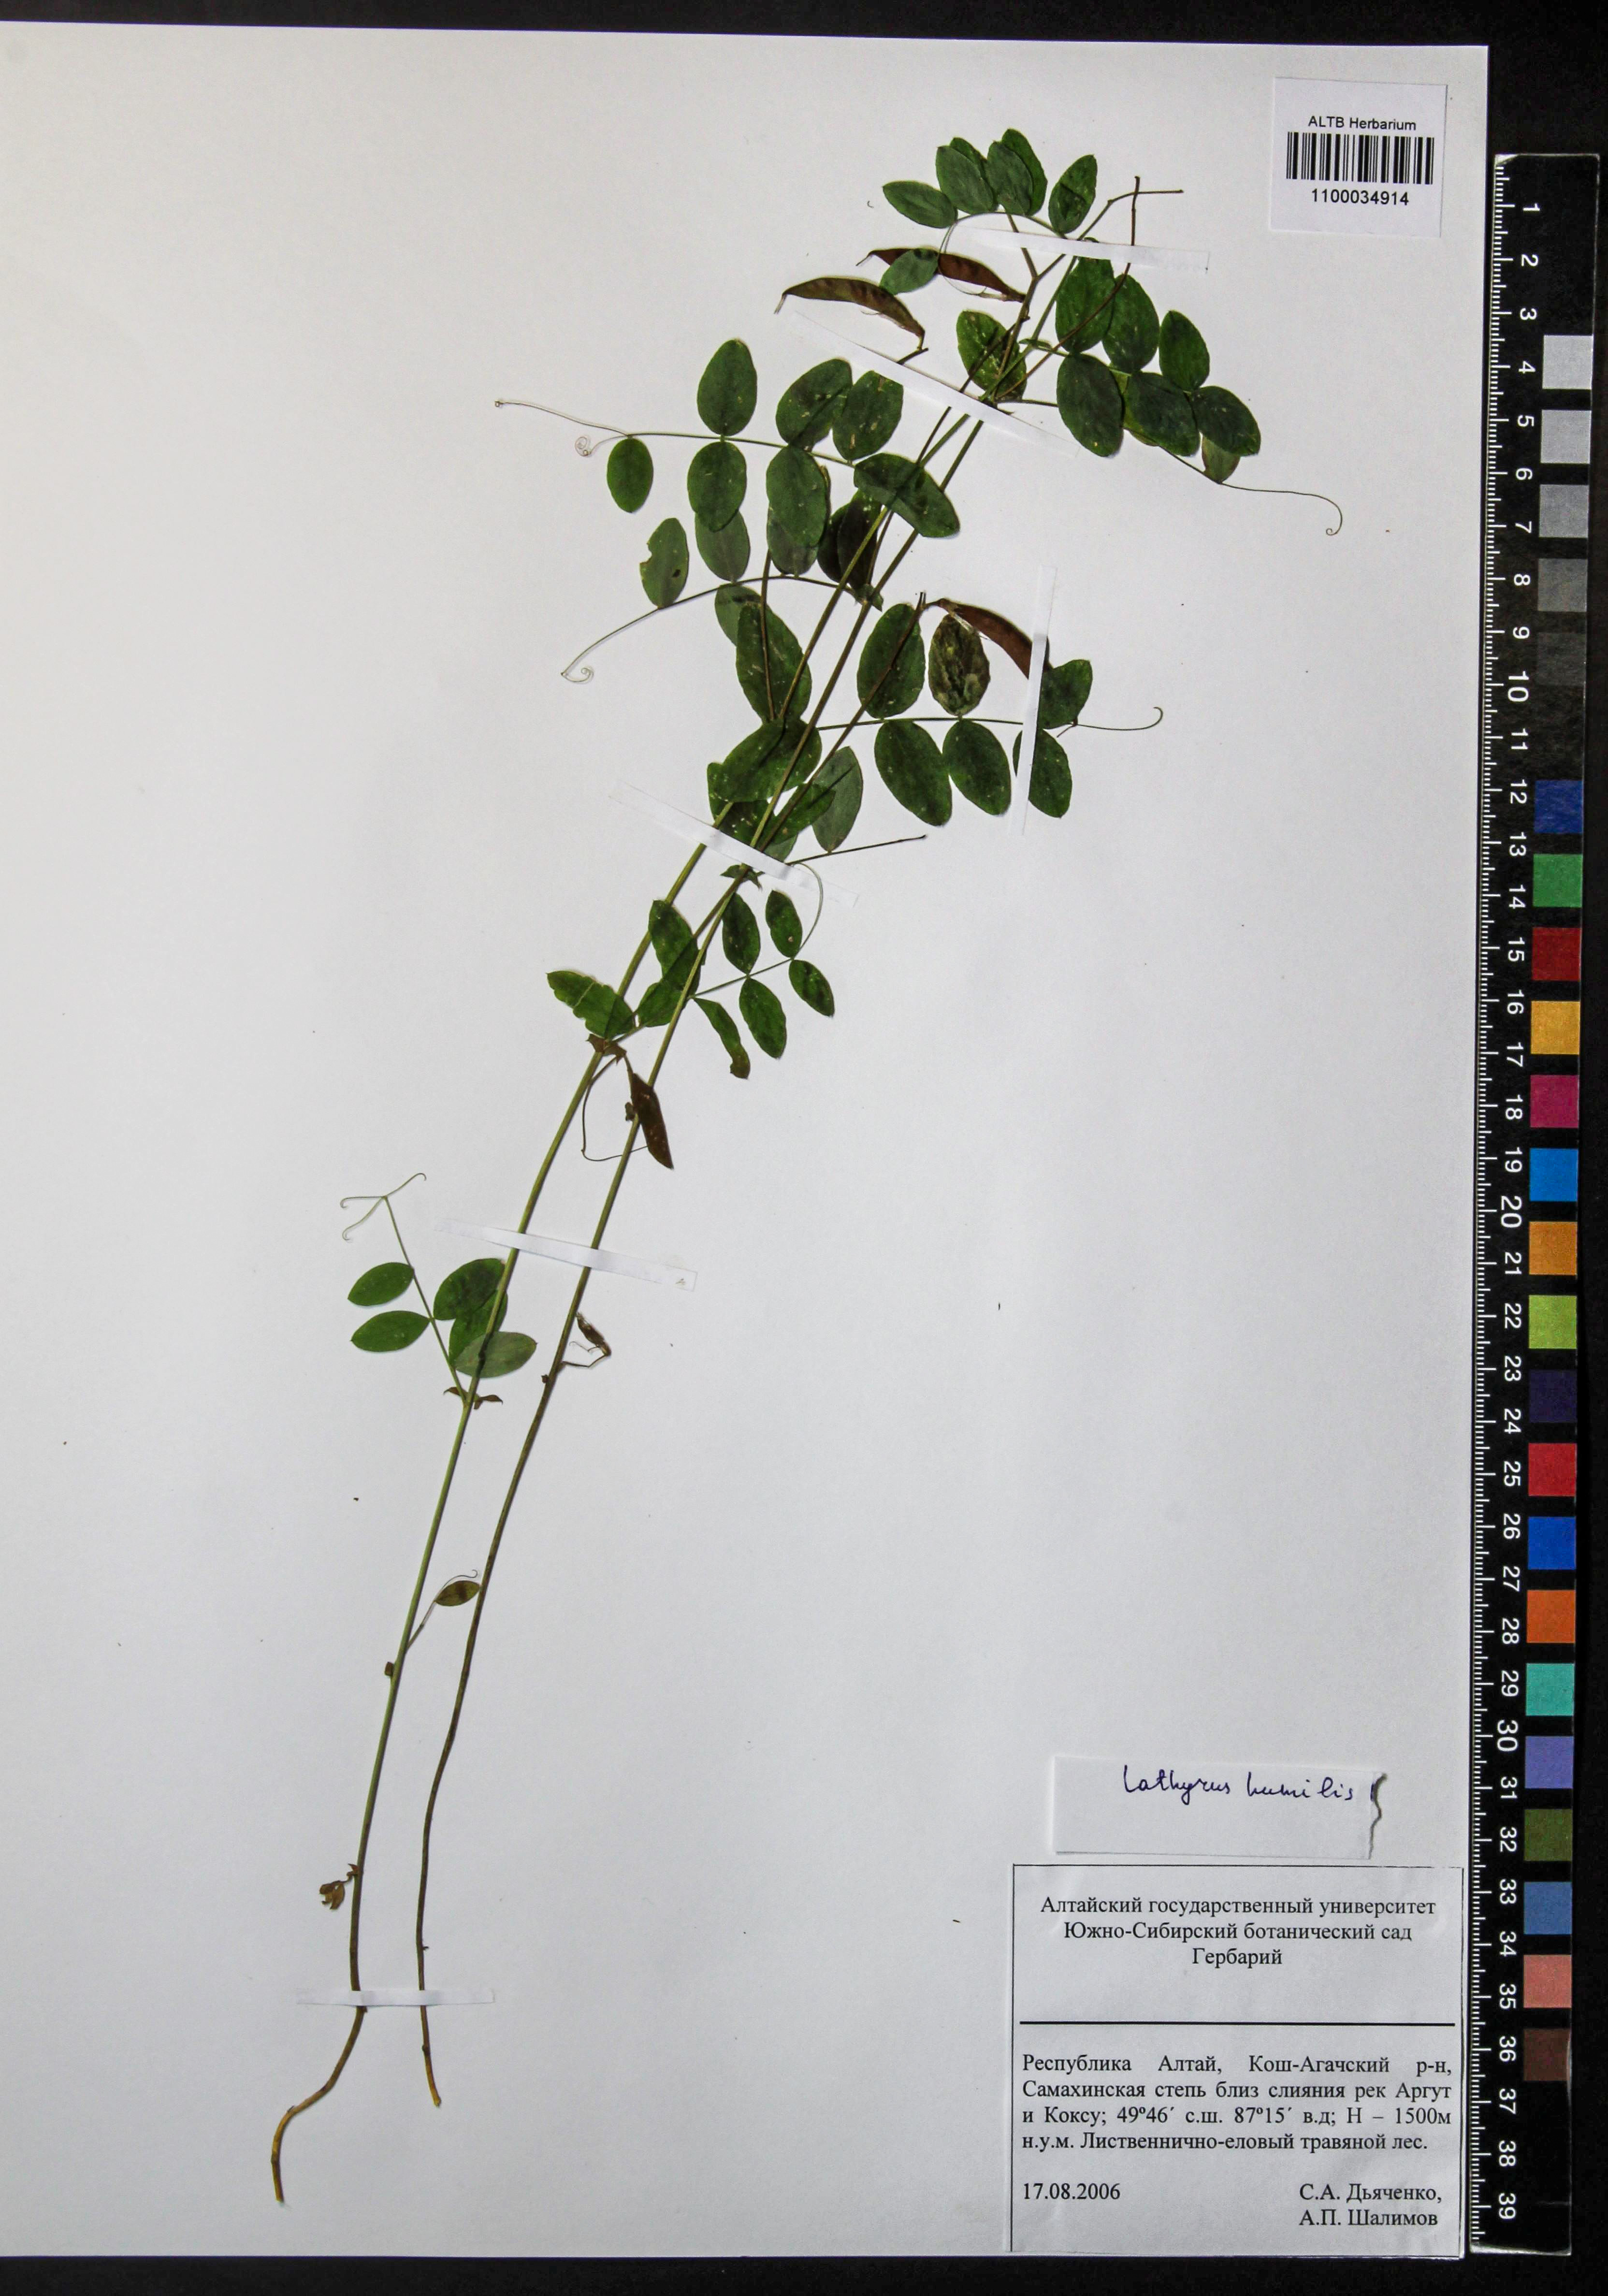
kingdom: Plantae
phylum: Tracheophyta
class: Magnoliopsida
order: Fabales
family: Fabaceae
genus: Lathyrus
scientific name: Lathyrus humilis
